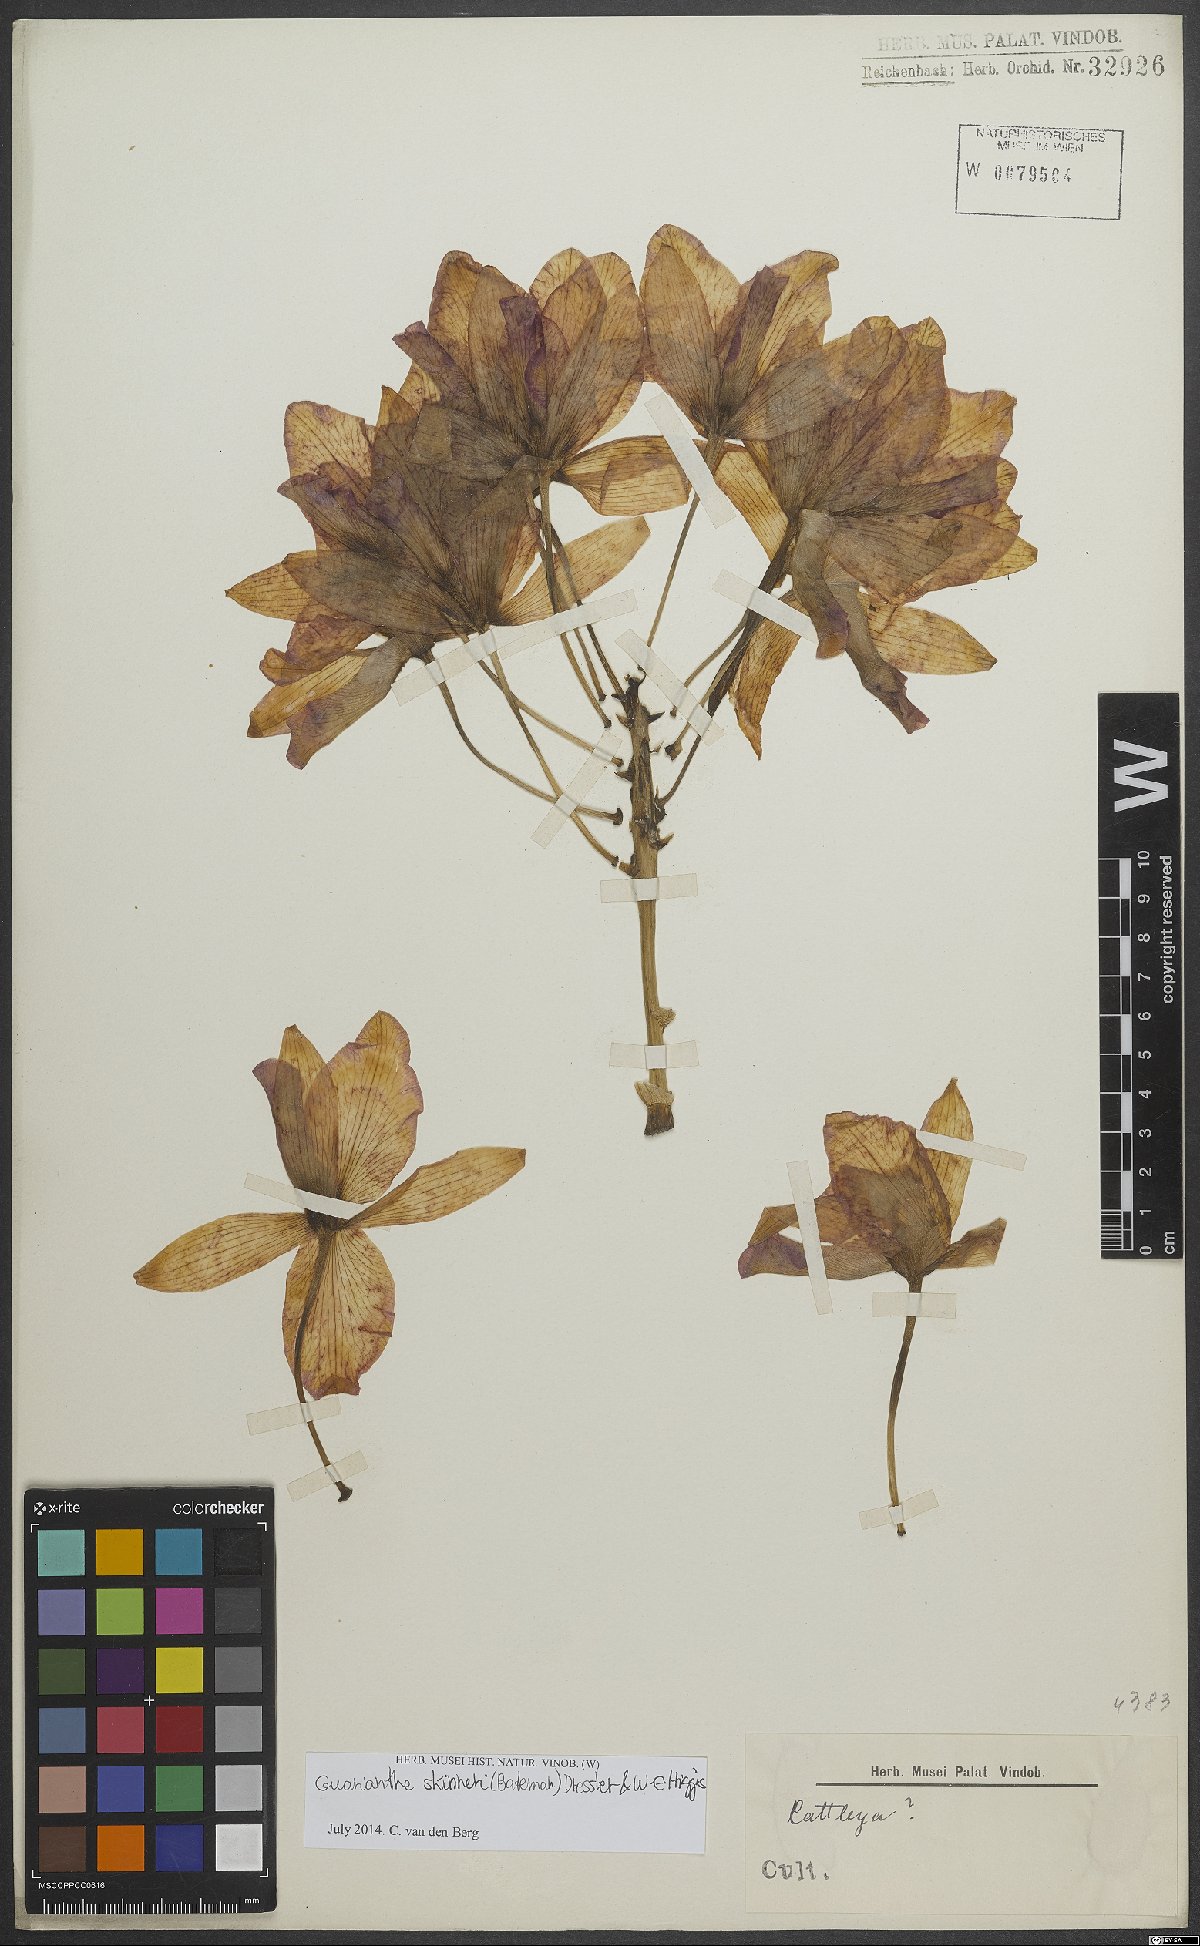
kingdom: Plantae
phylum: Tracheophyta
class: Liliopsida
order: Asparagales
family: Orchidaceae
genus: Guarianthe
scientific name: Guarianthe skinneri
